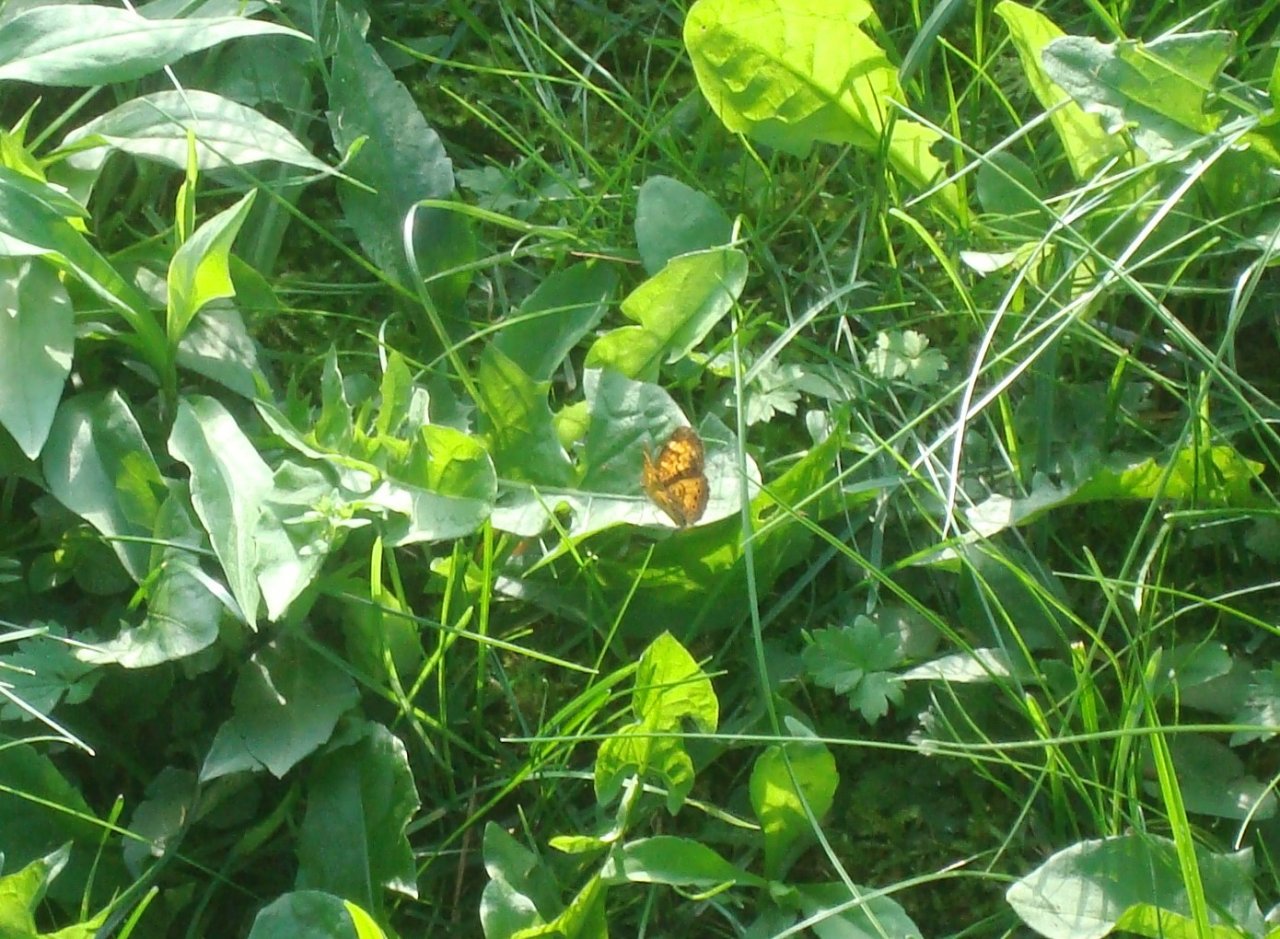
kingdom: Animalia
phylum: Arthropoda
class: Insecta
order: Lepidoptera
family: Nymphalidae
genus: Phyciodes
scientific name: Phyciodes tharos
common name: Northern Crescent
